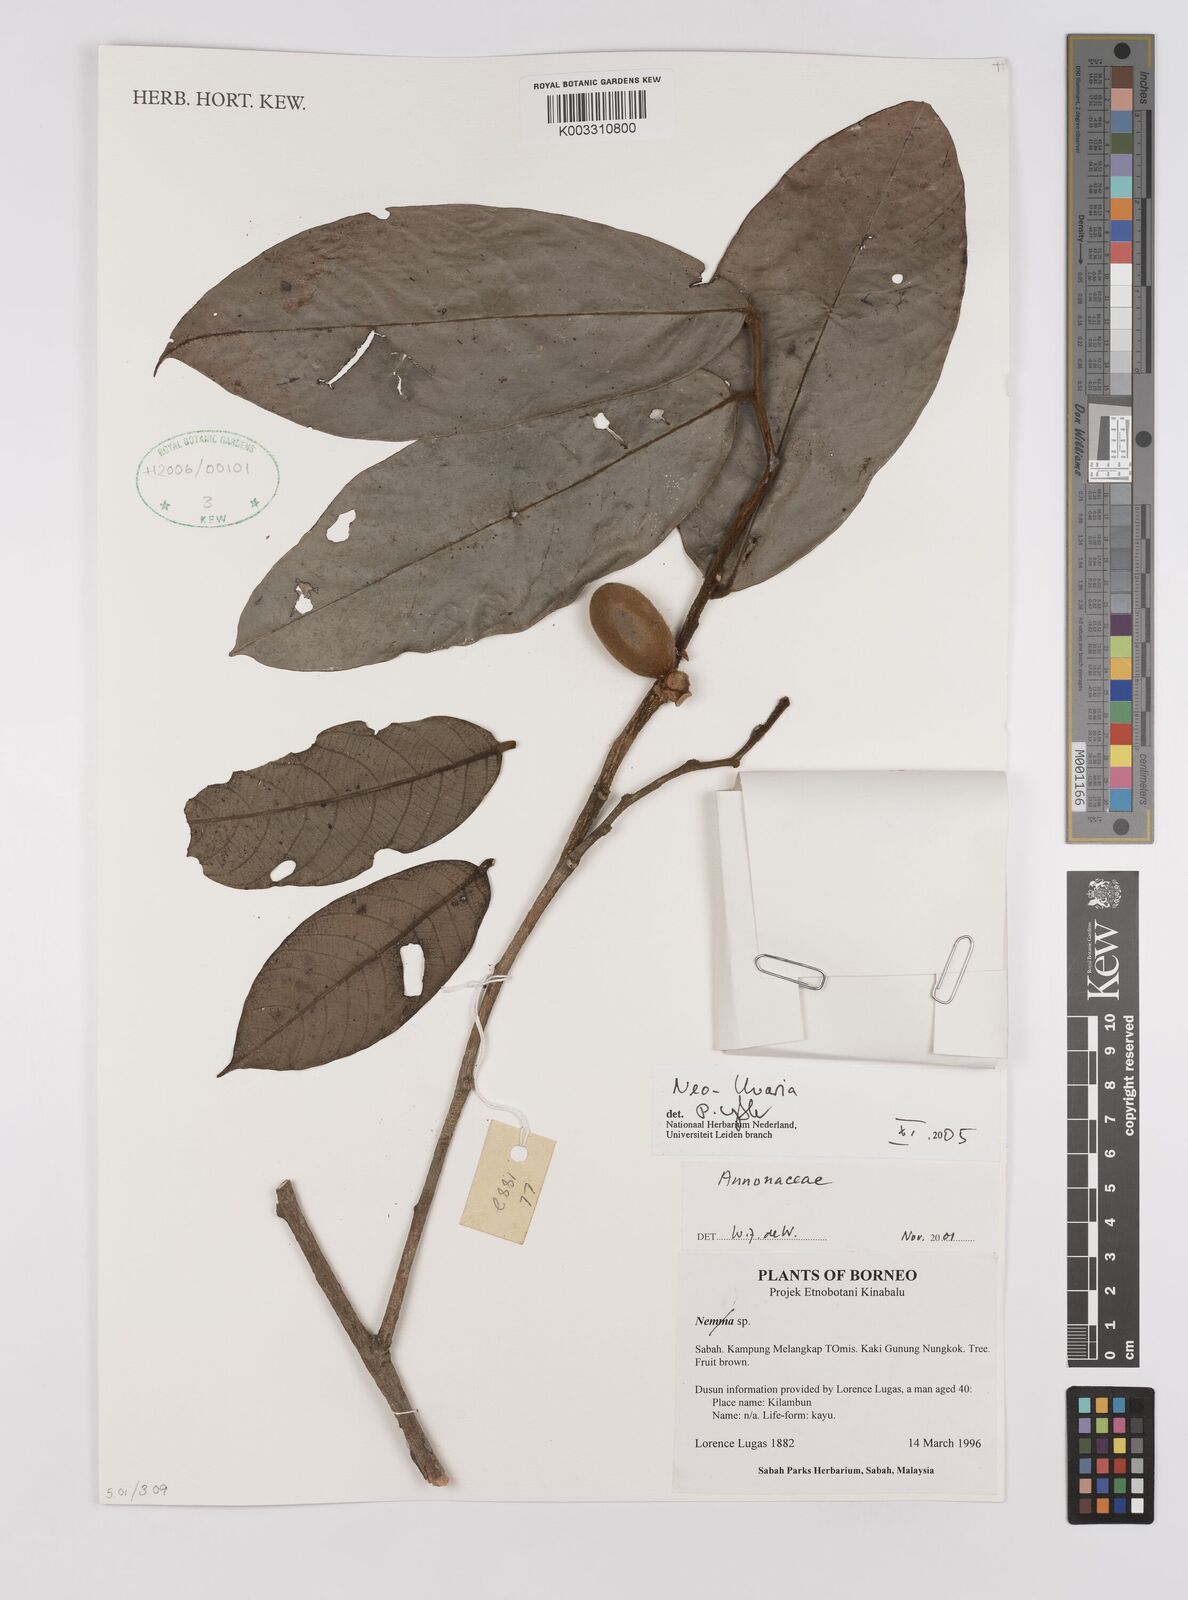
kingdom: Plantae
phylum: Tracheophyta
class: Magnoliopsida
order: Magnoliales
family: Annonaceae
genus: Neo-uvaria
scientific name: Neo-uvaria
